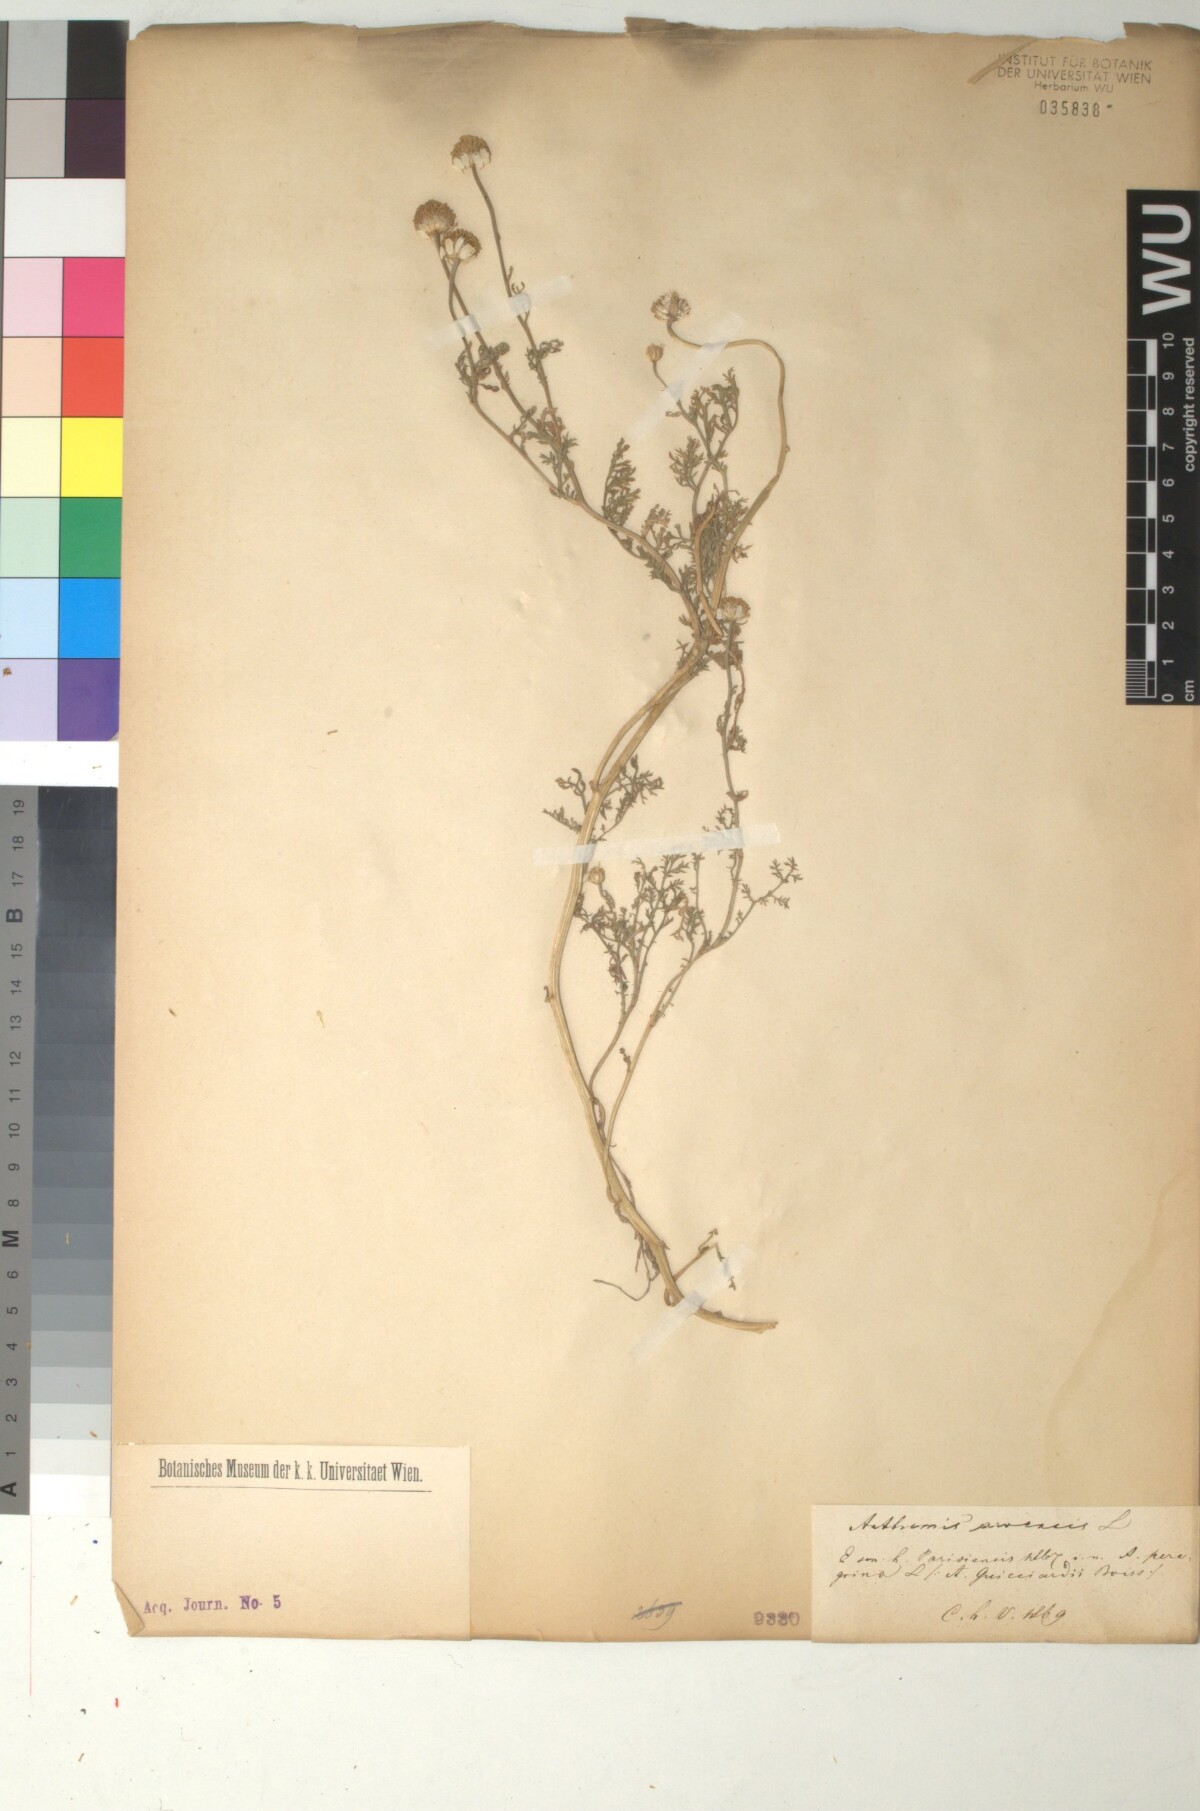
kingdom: Plantae
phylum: Tracheophyta
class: Magnoliopsida
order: Asterales
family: Asteraceae
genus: Anthemis
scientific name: Anthemis arvensis
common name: Corn chamomile
